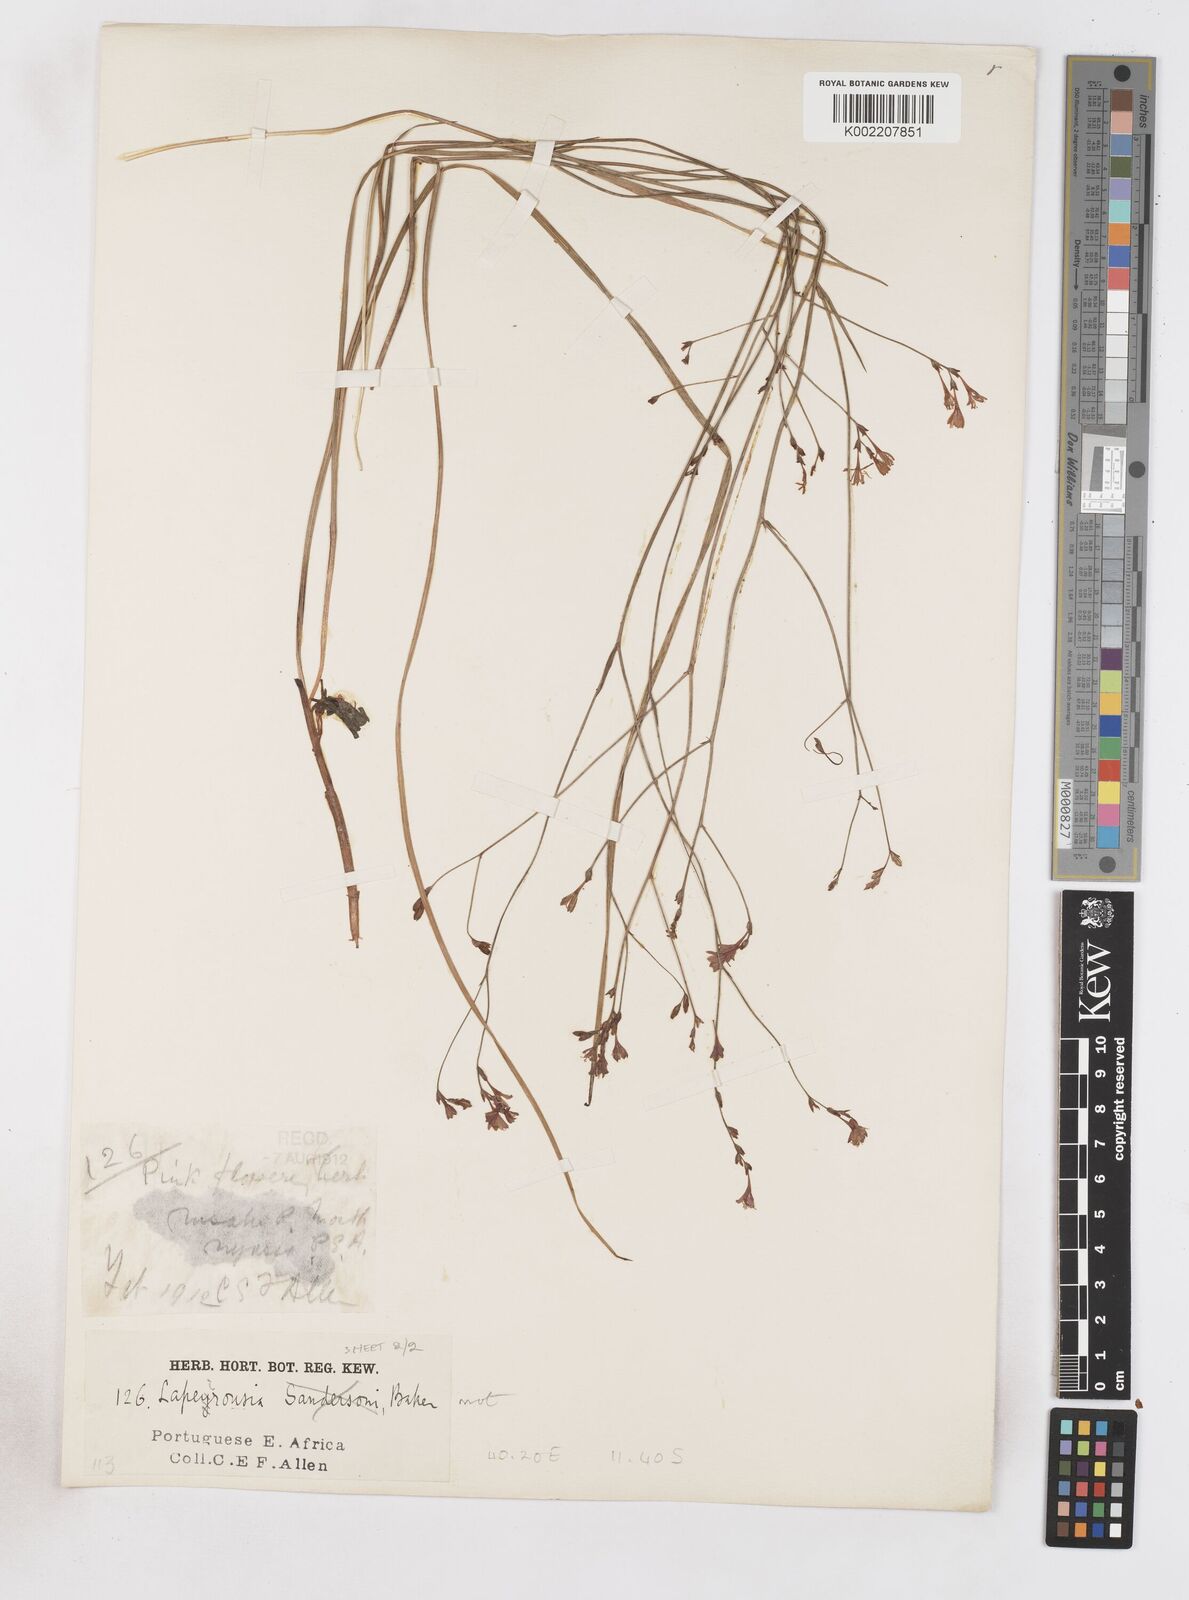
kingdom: Plantae
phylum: Tracheophyta
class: Liliopsida
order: Asparagales
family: Iridaceae
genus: Afrosolen
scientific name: Afrosolen erythranthus
